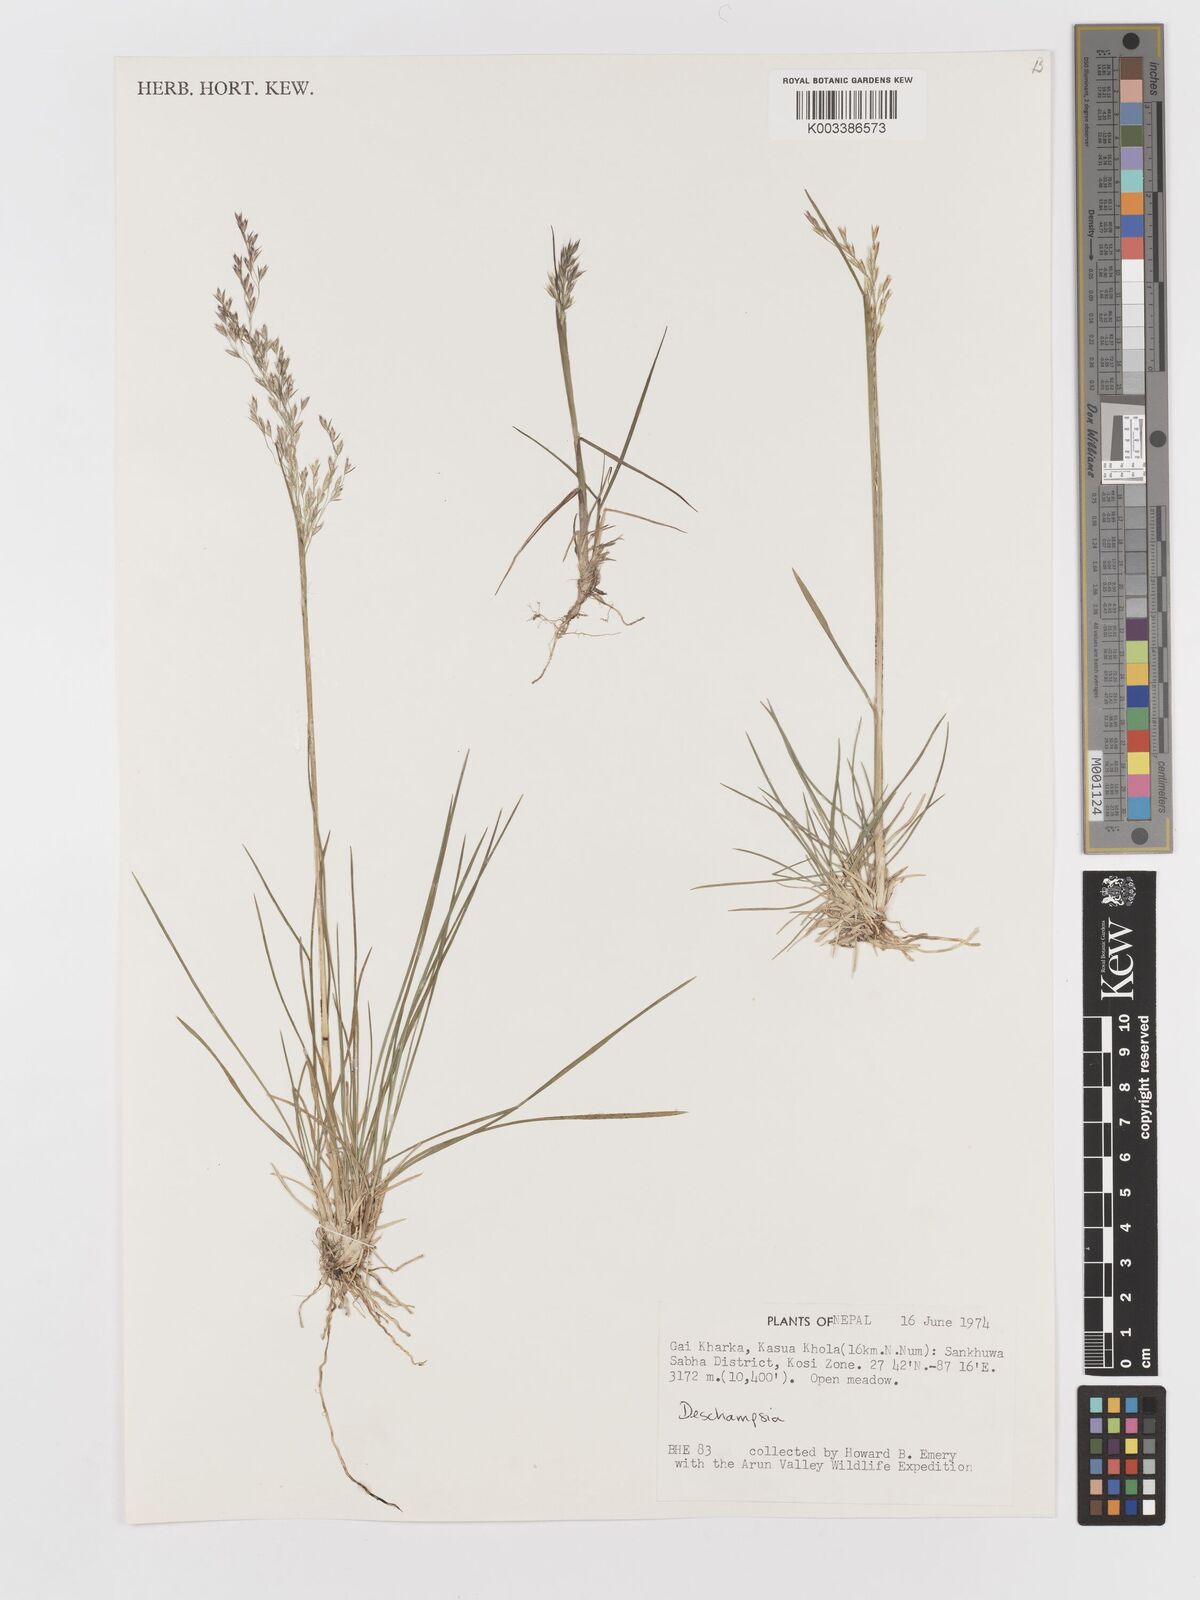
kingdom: Plantae
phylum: Tracheophyta
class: Liliopsida
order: Poales
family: Poaceae
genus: Deschampsia
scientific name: Deschampsia
